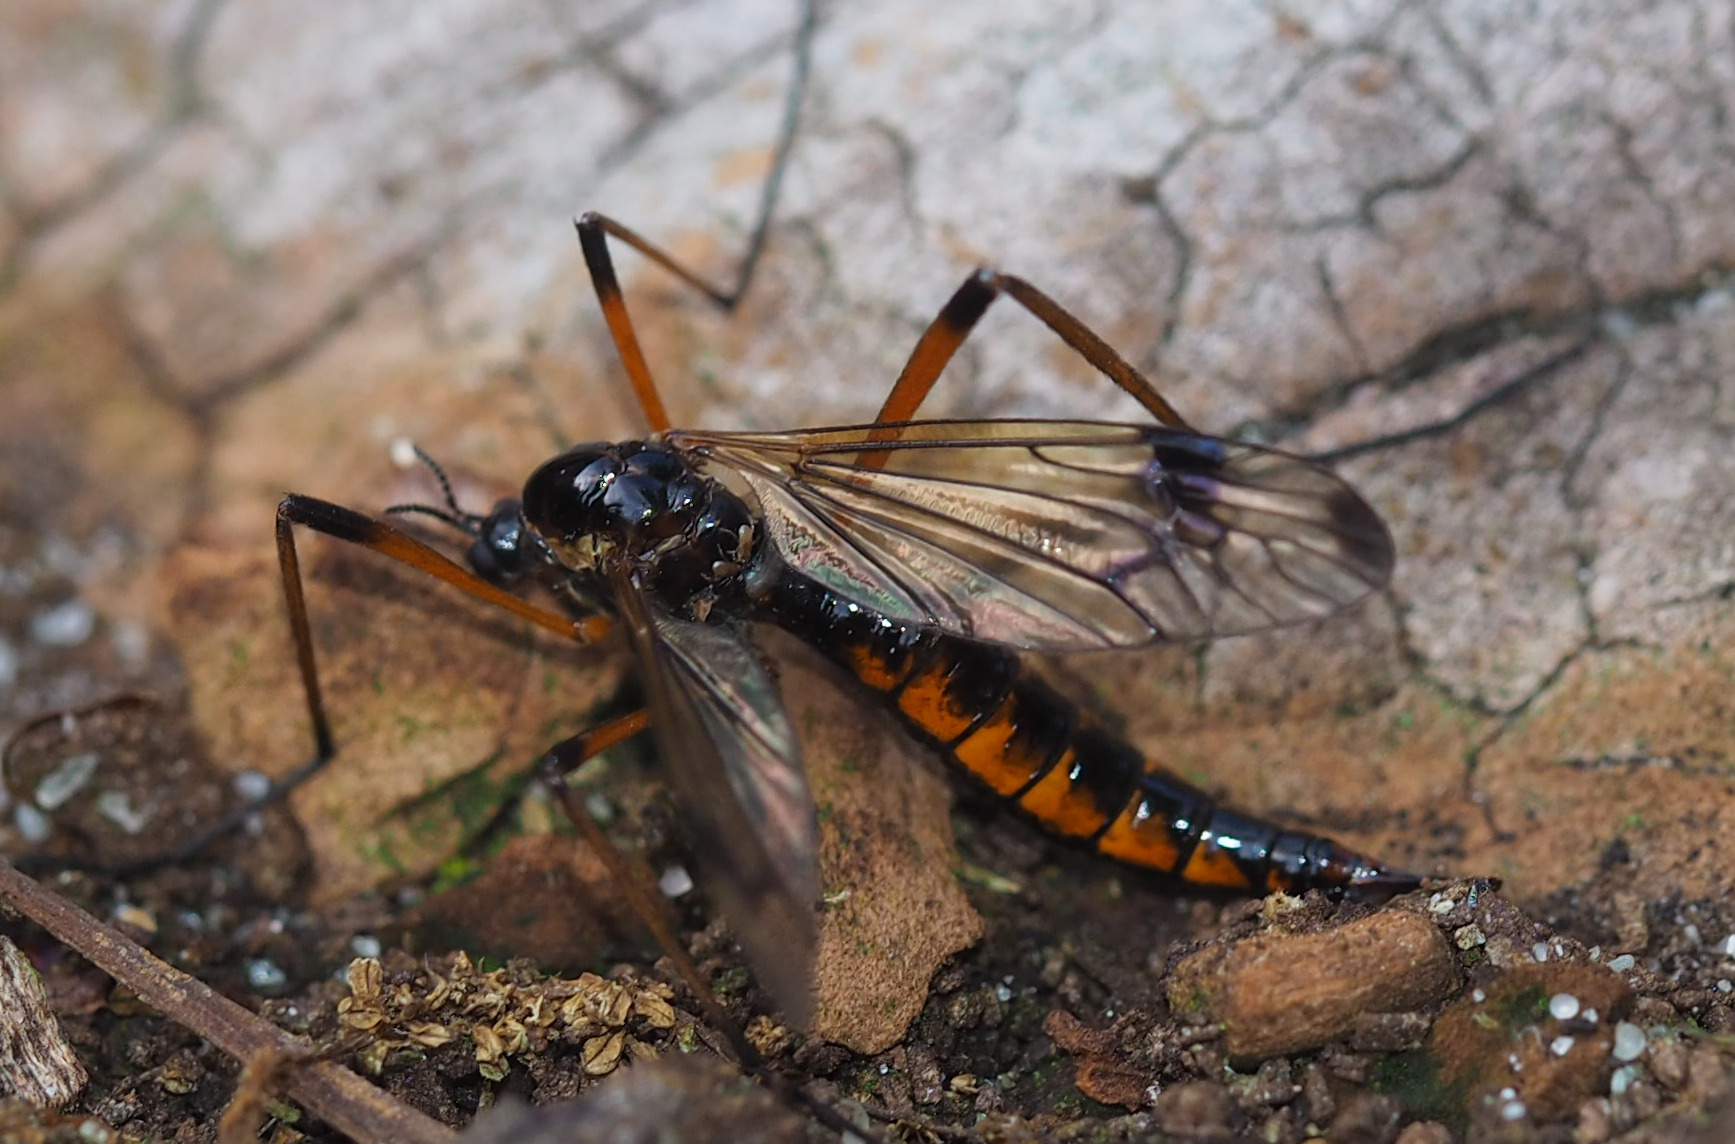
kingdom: Animalia
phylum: Arthropoda
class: Insecta
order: Diptera
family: Tipulidae
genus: Dictenidia
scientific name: Dictenidia bimaculata
